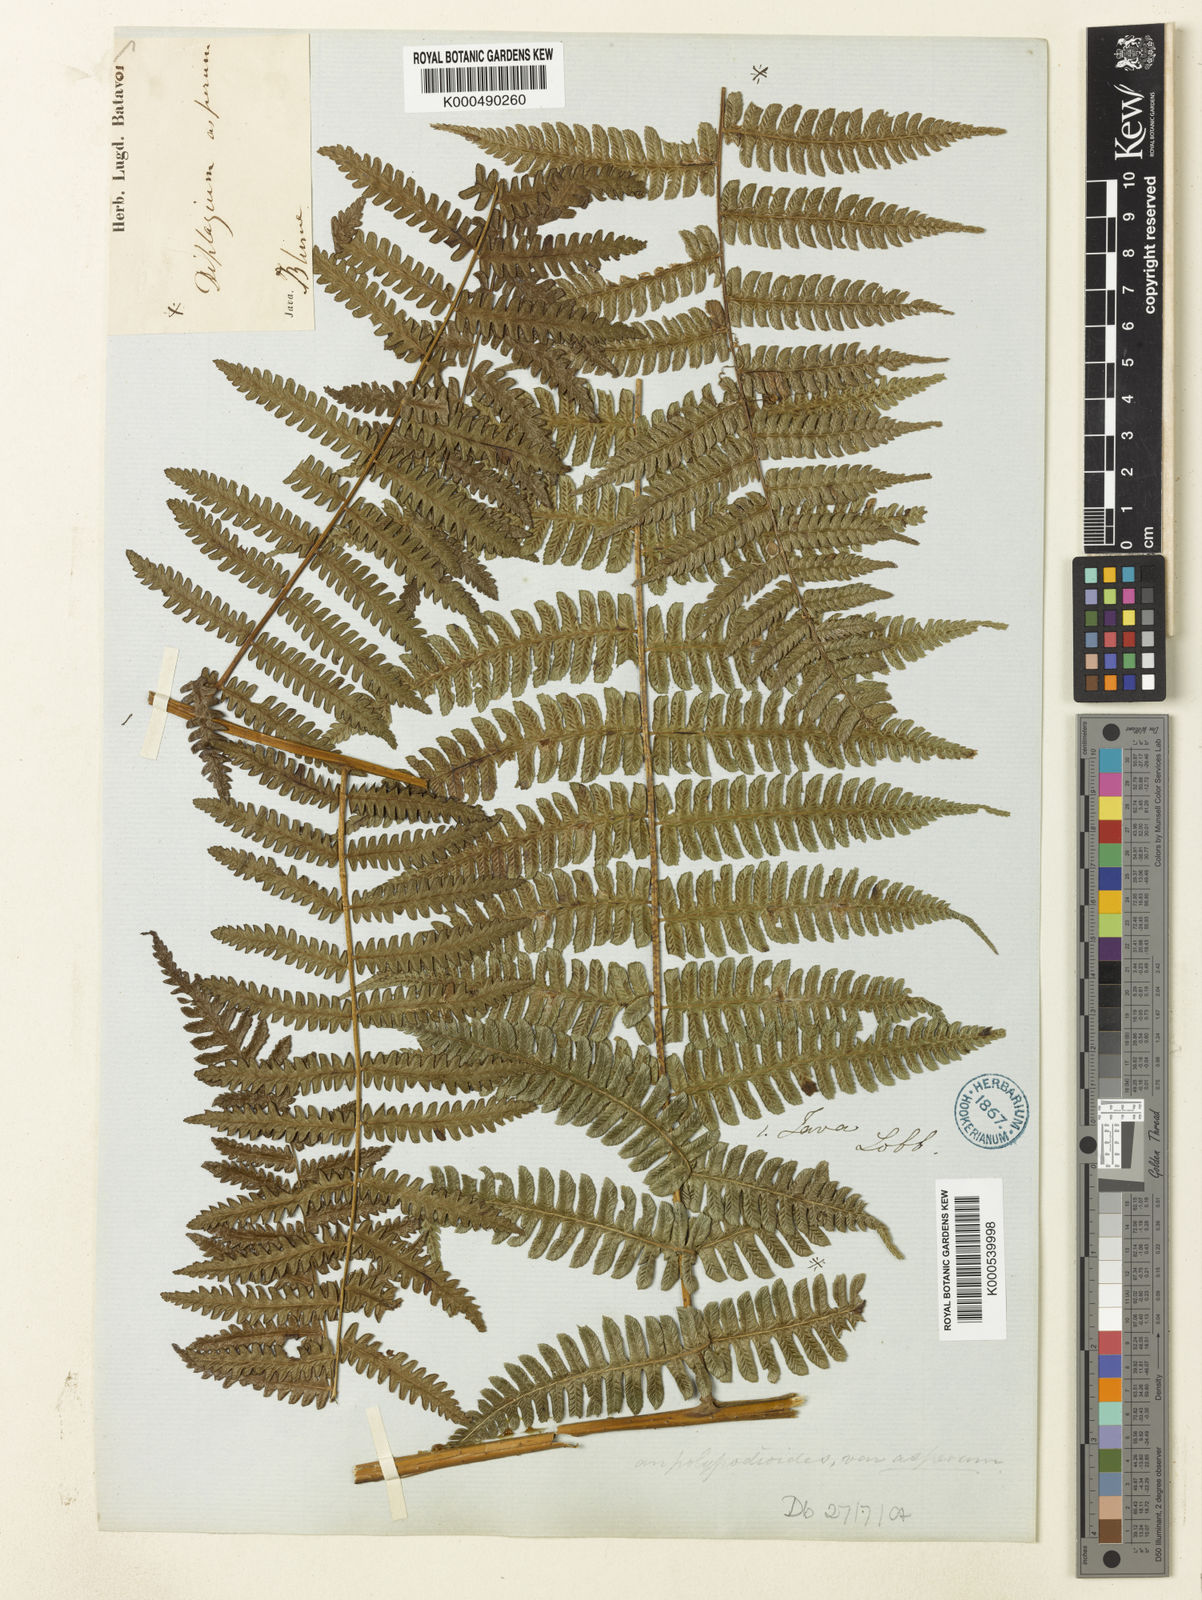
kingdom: Plantae
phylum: Tracheophyta
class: Polypodiopsida
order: Polypodiales
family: Athyriaceae
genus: Diplazium
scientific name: Diplazium polypodioides
